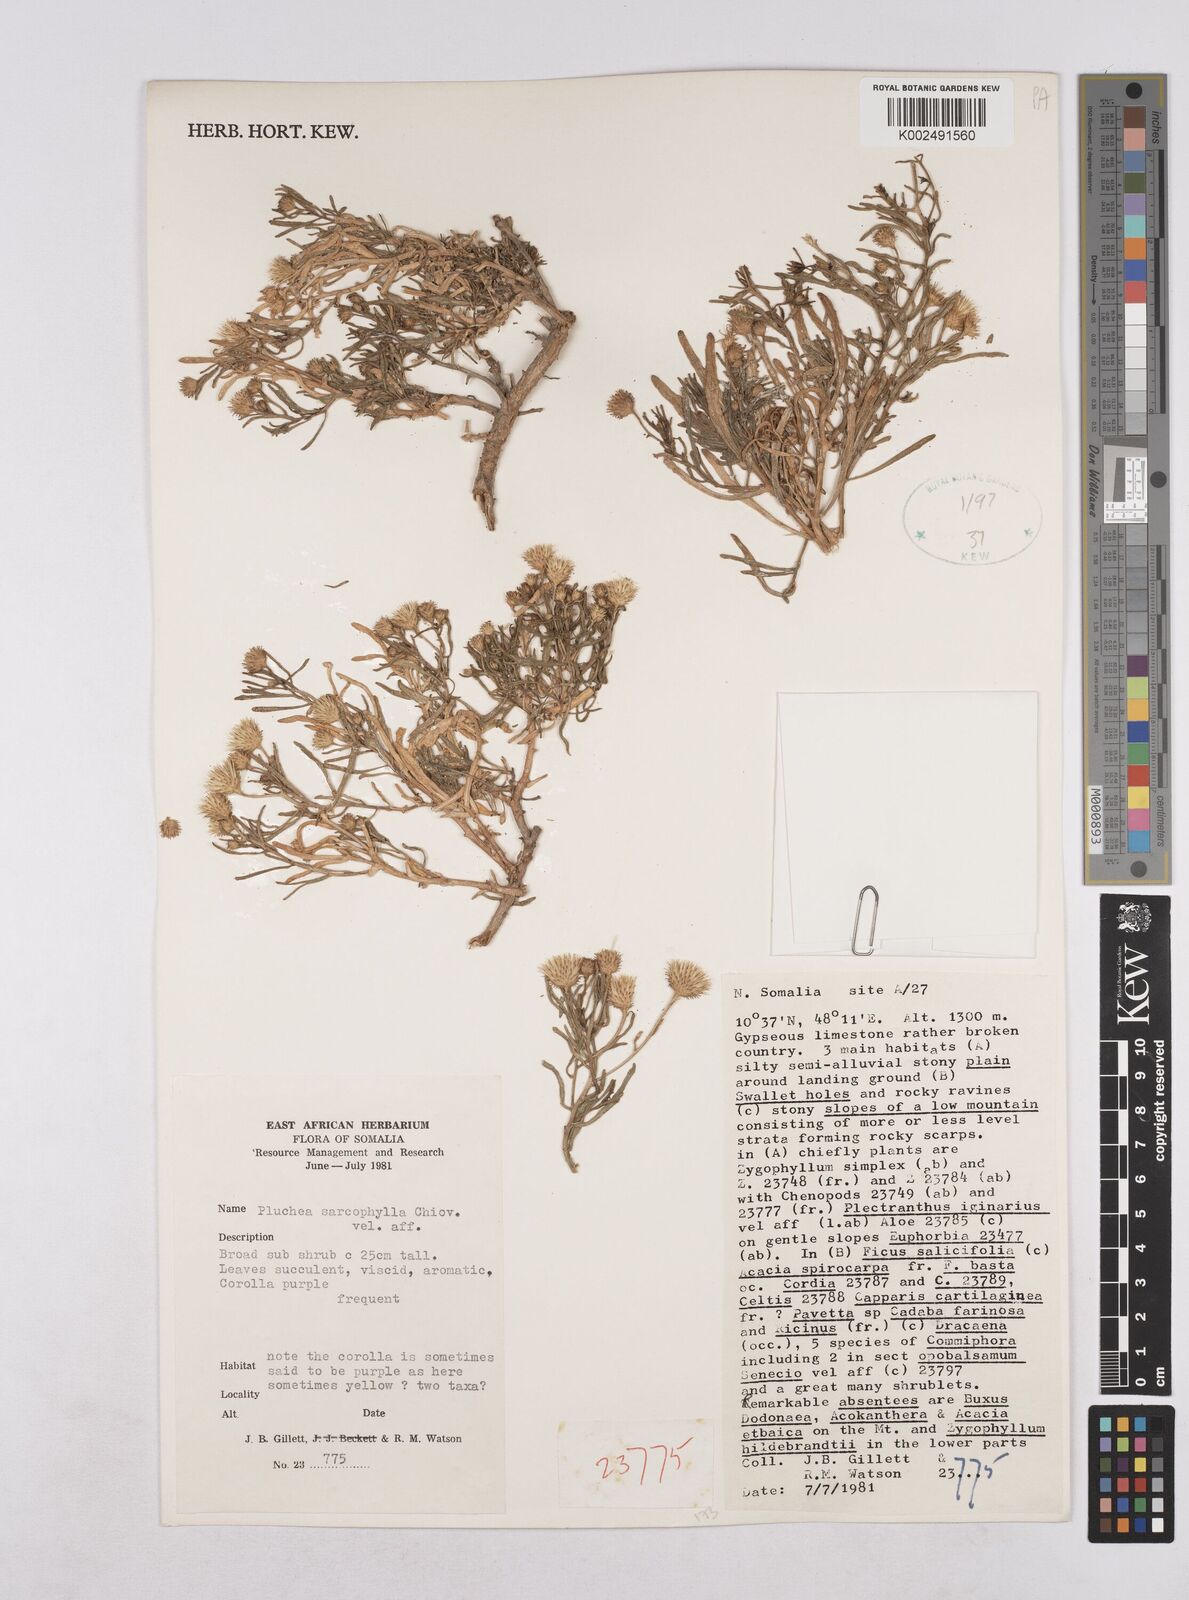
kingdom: Plantae
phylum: Tracheophyta
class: Magnoliopsida
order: Asterales
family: Asteraceae
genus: Pluchea
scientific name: Pluchea sarcophylla
